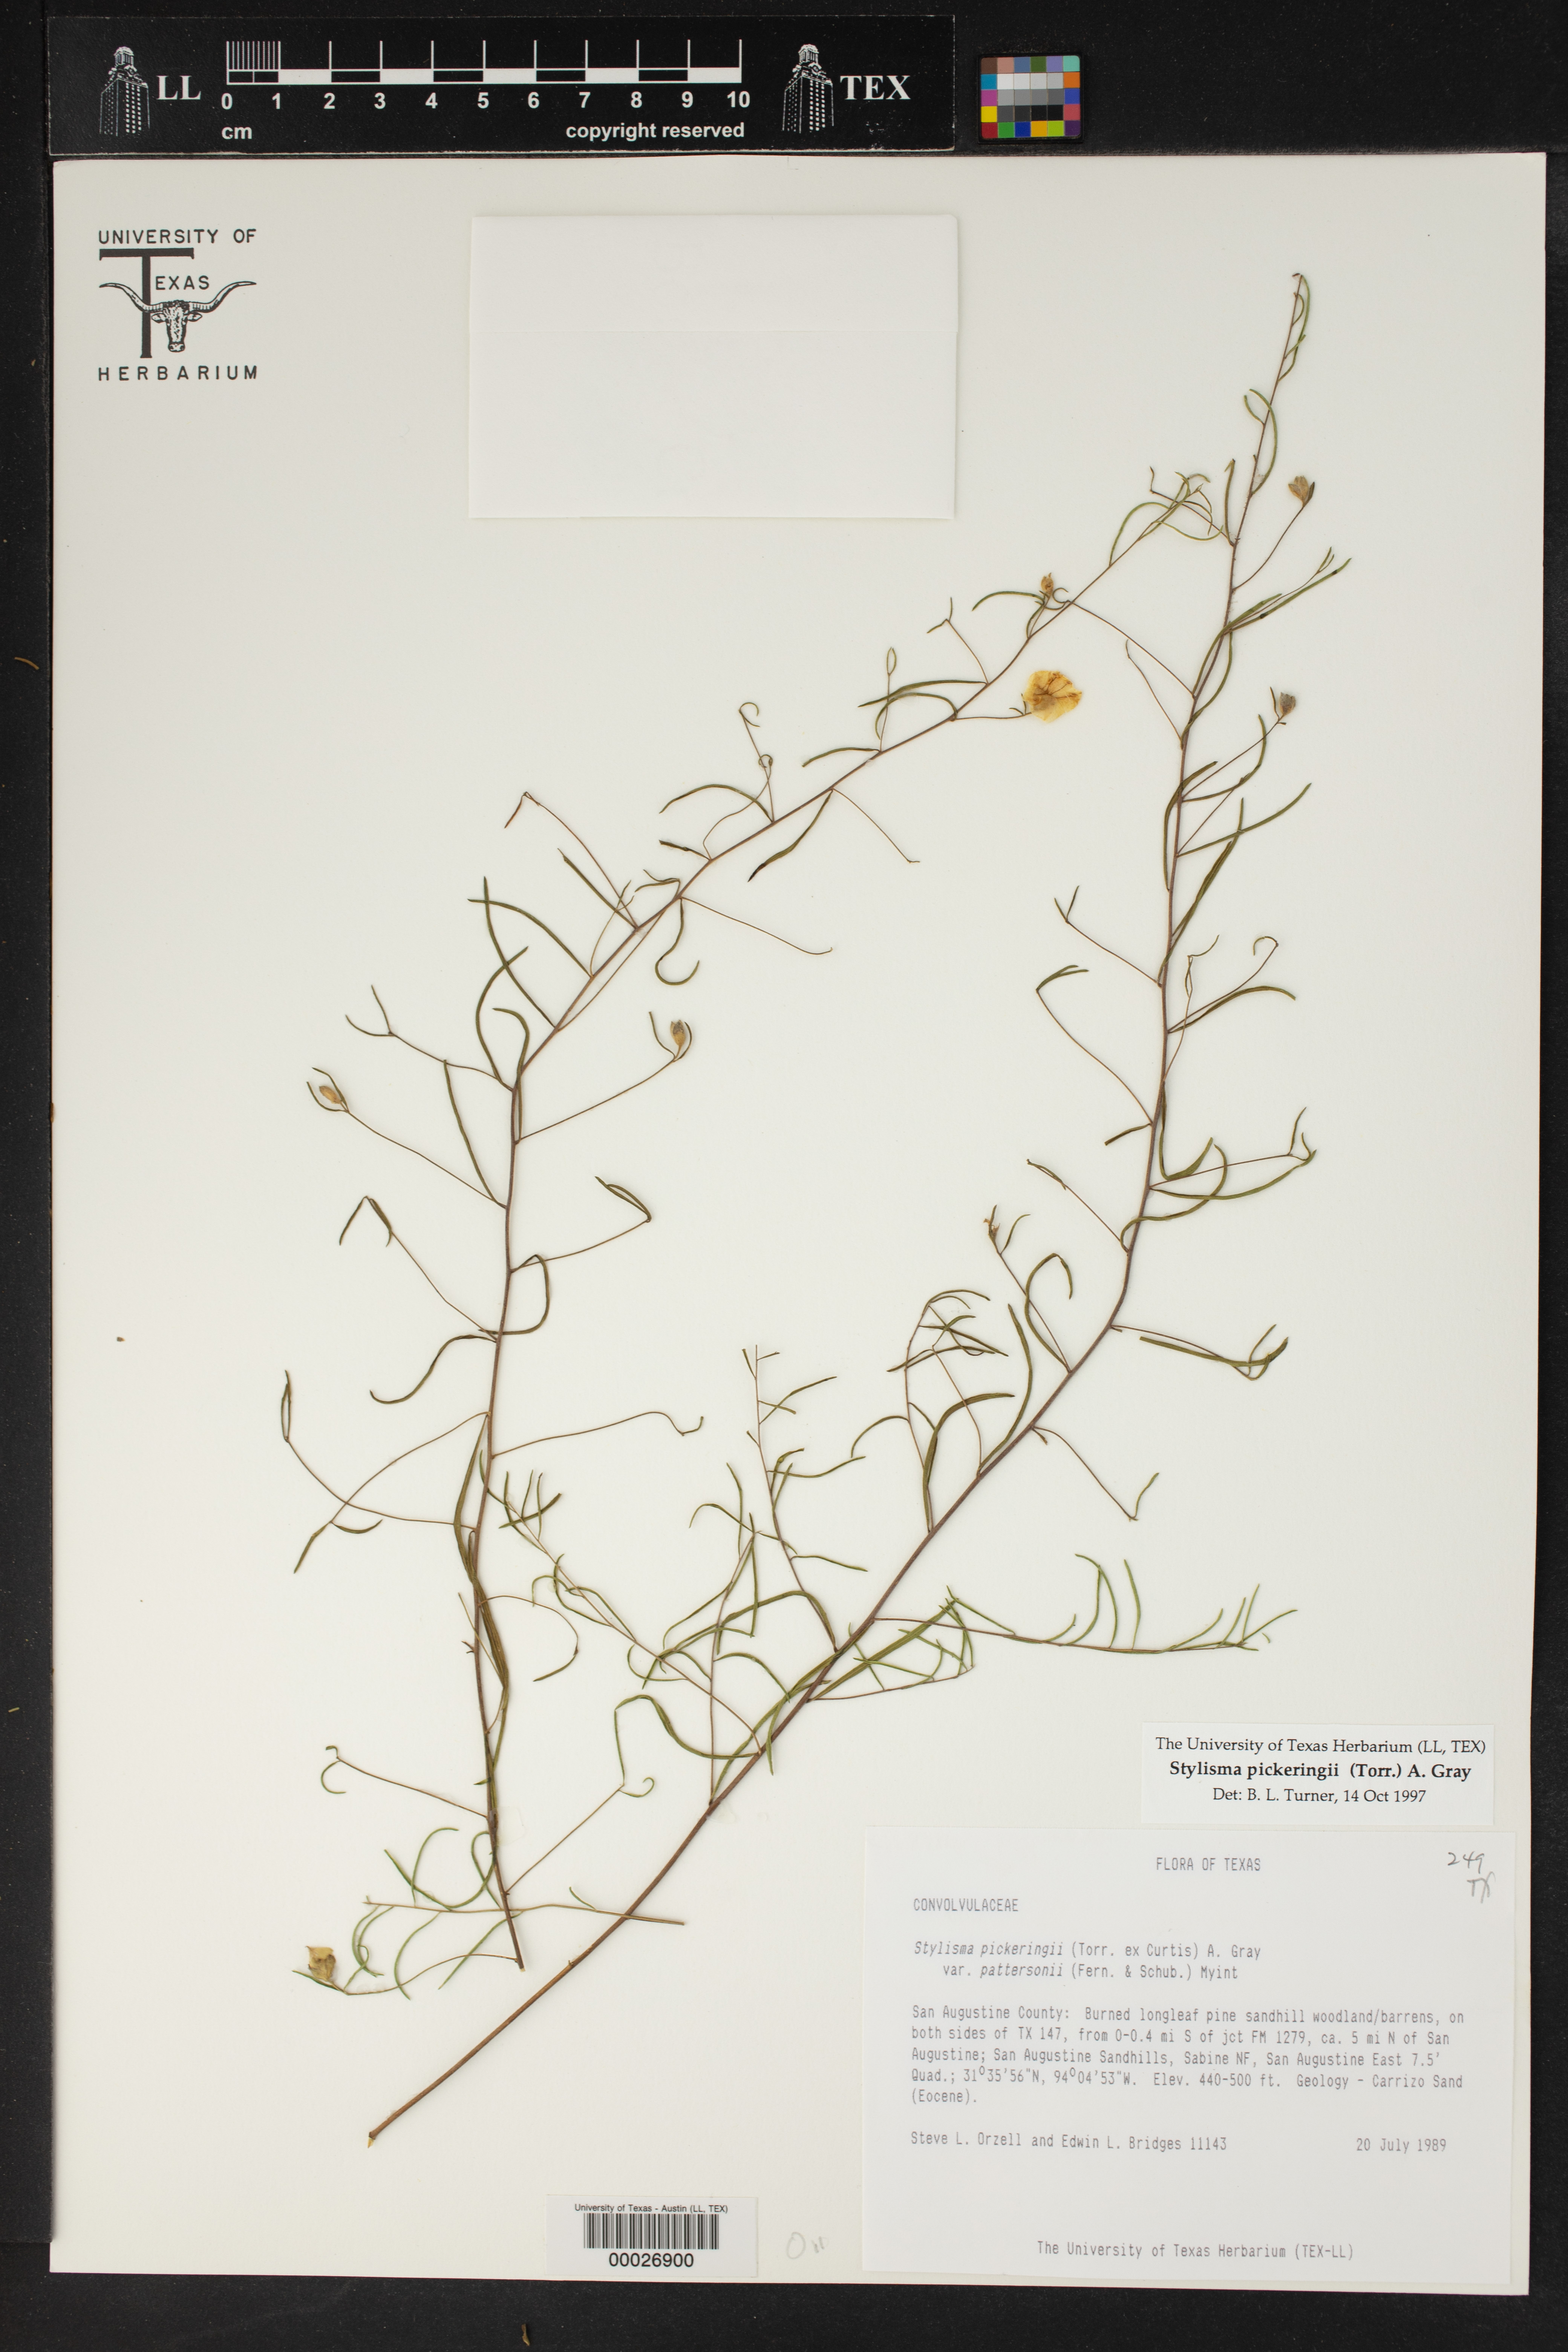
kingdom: Plantae
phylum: Tracheophyta
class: Magnoliopsida
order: Solanales
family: Convolvulaceae
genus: Stylisma
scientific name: Stylisma pickeringii
